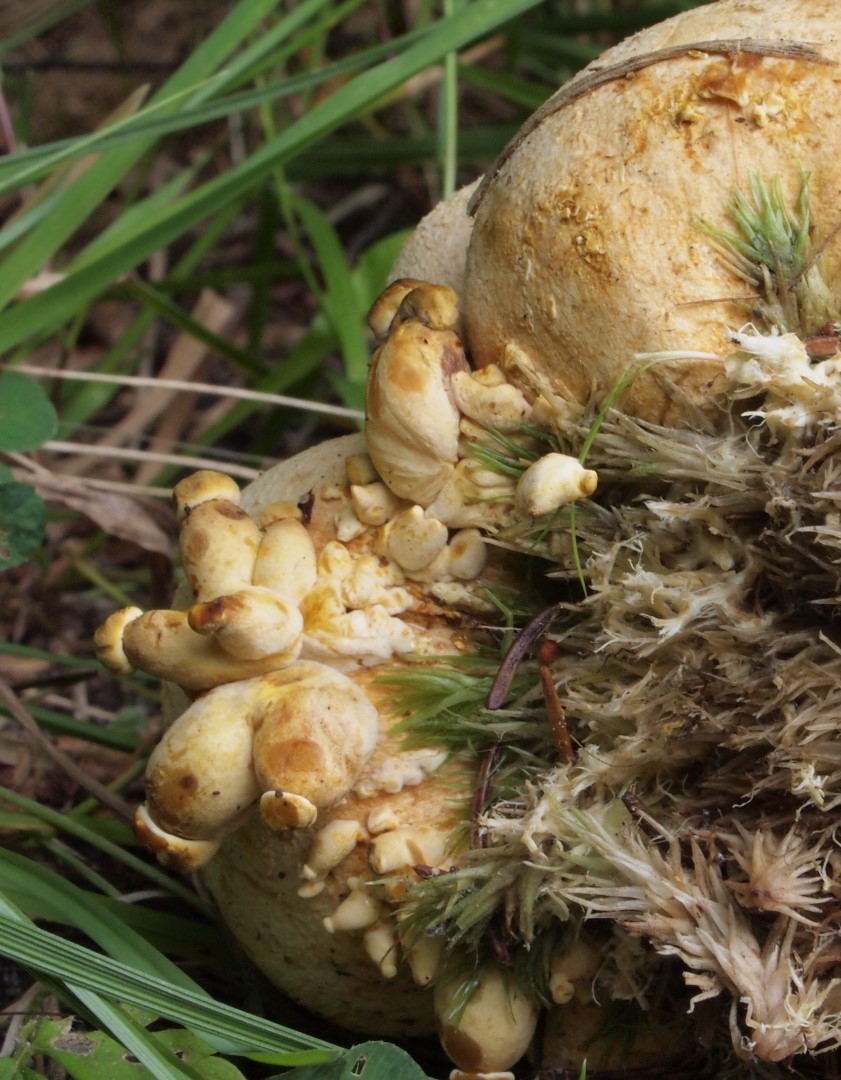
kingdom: Fungi
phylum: Basidiomycota
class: Agaricomycetes
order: Boletales
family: Boletaceae
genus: Pseudoboletus
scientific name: Pseudoboletus parasiticus
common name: snyltende rørhat
